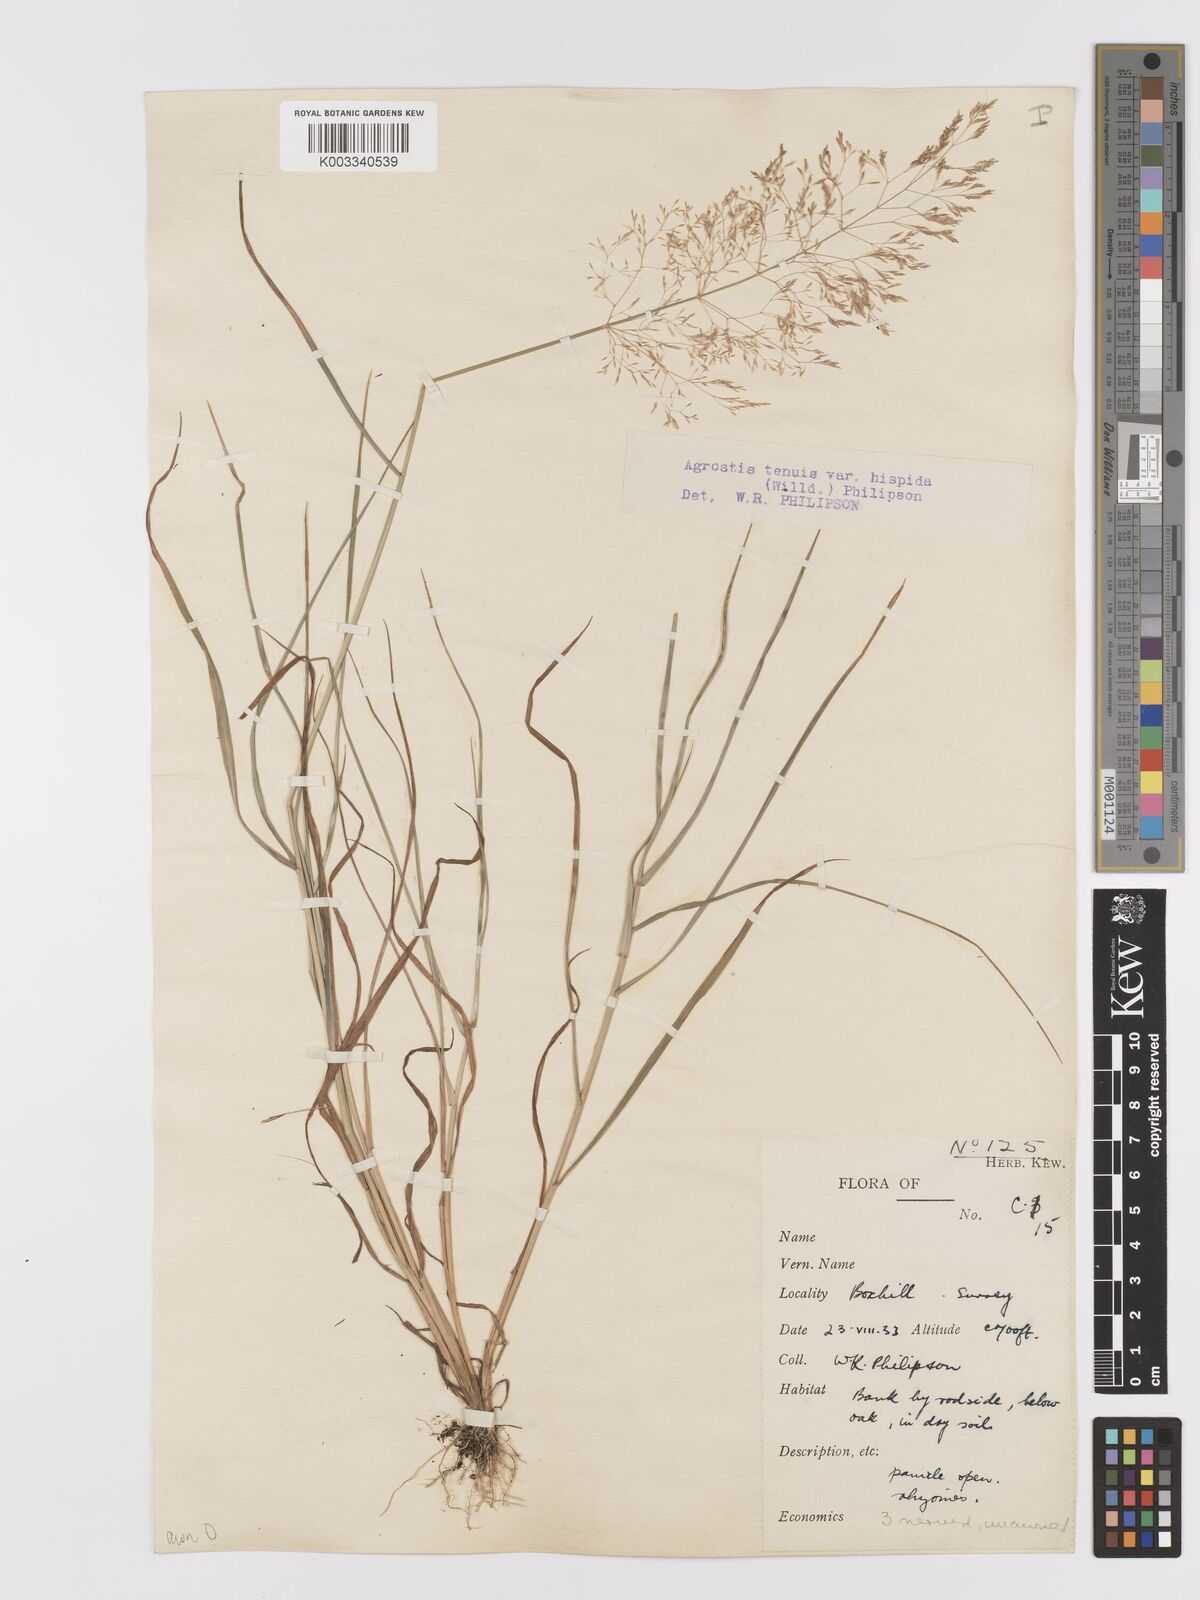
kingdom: Plantae
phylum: Tracheophyta
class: Liliopsida
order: Poales
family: Poaceae
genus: Agrostis
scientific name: Agrostis capillaris
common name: Colonial bentgrass
